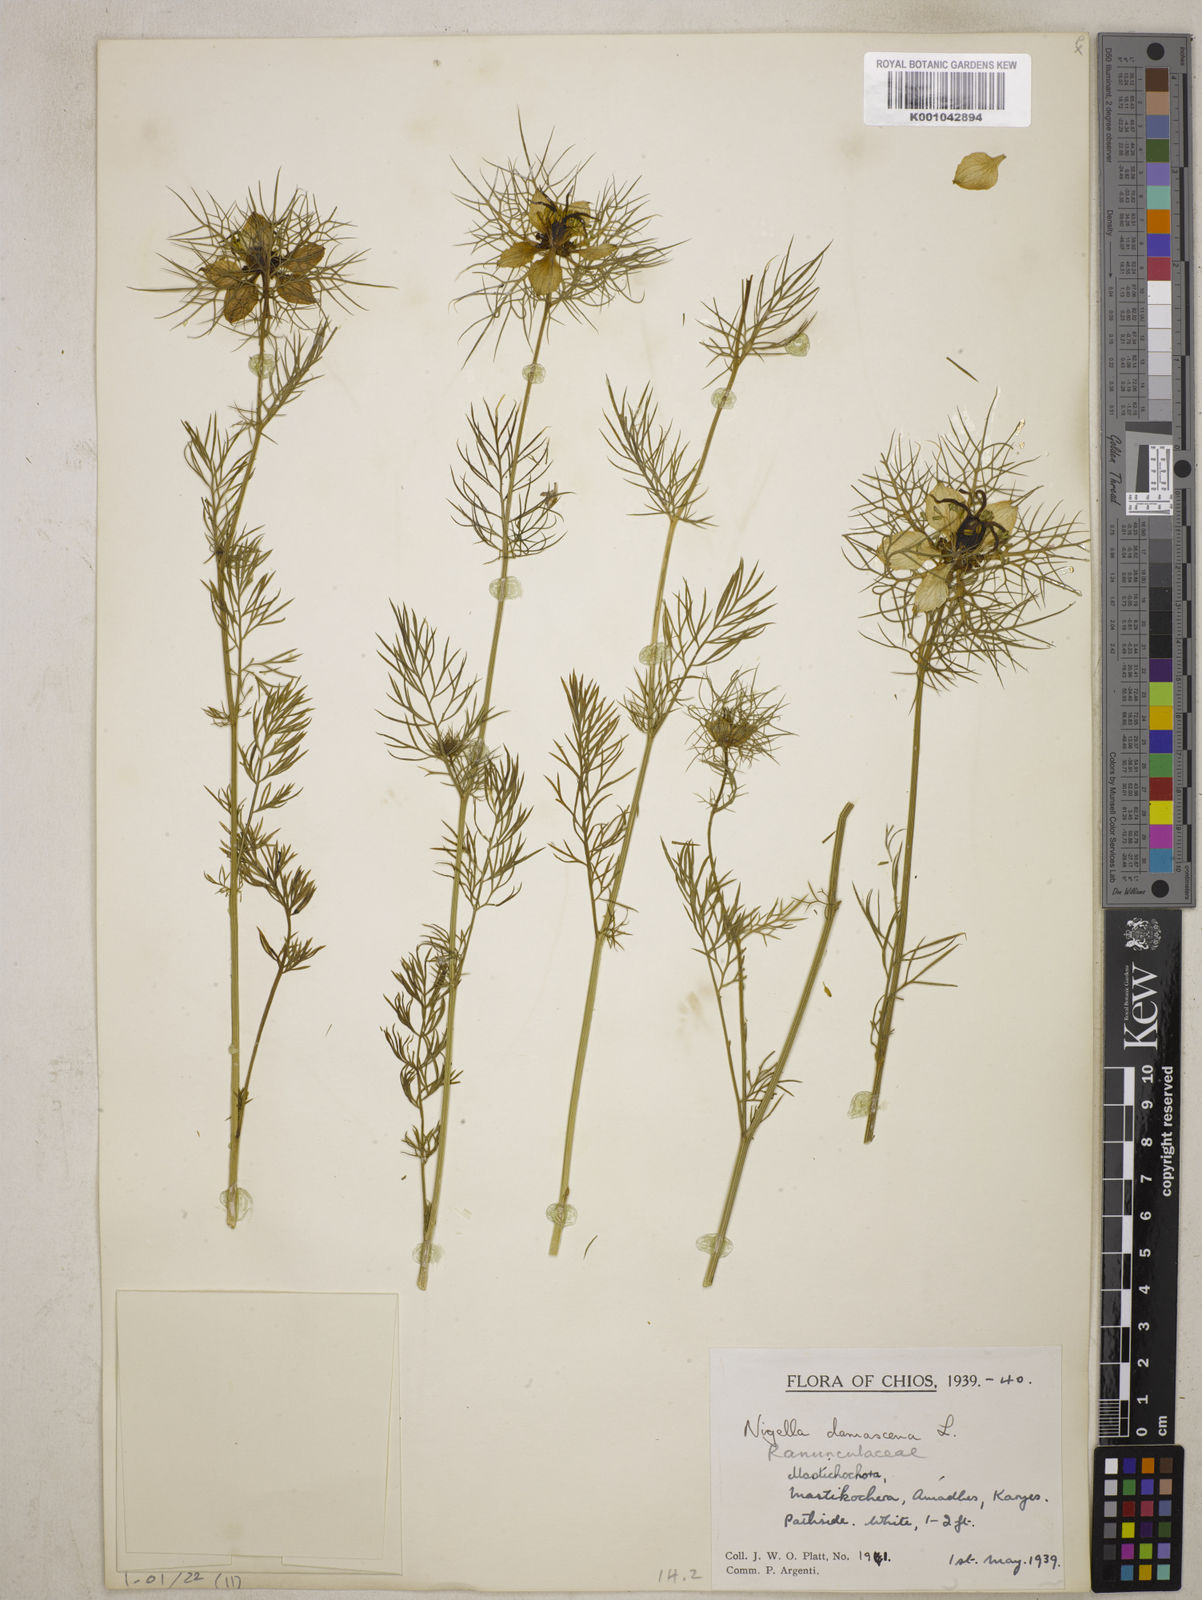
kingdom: Plantae
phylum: Tracheophyta
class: Magnoliopsida
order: Ranunculales
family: Ranunculaceae
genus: Nigella
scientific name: Nigella damascena
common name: Love-in-a-mist
